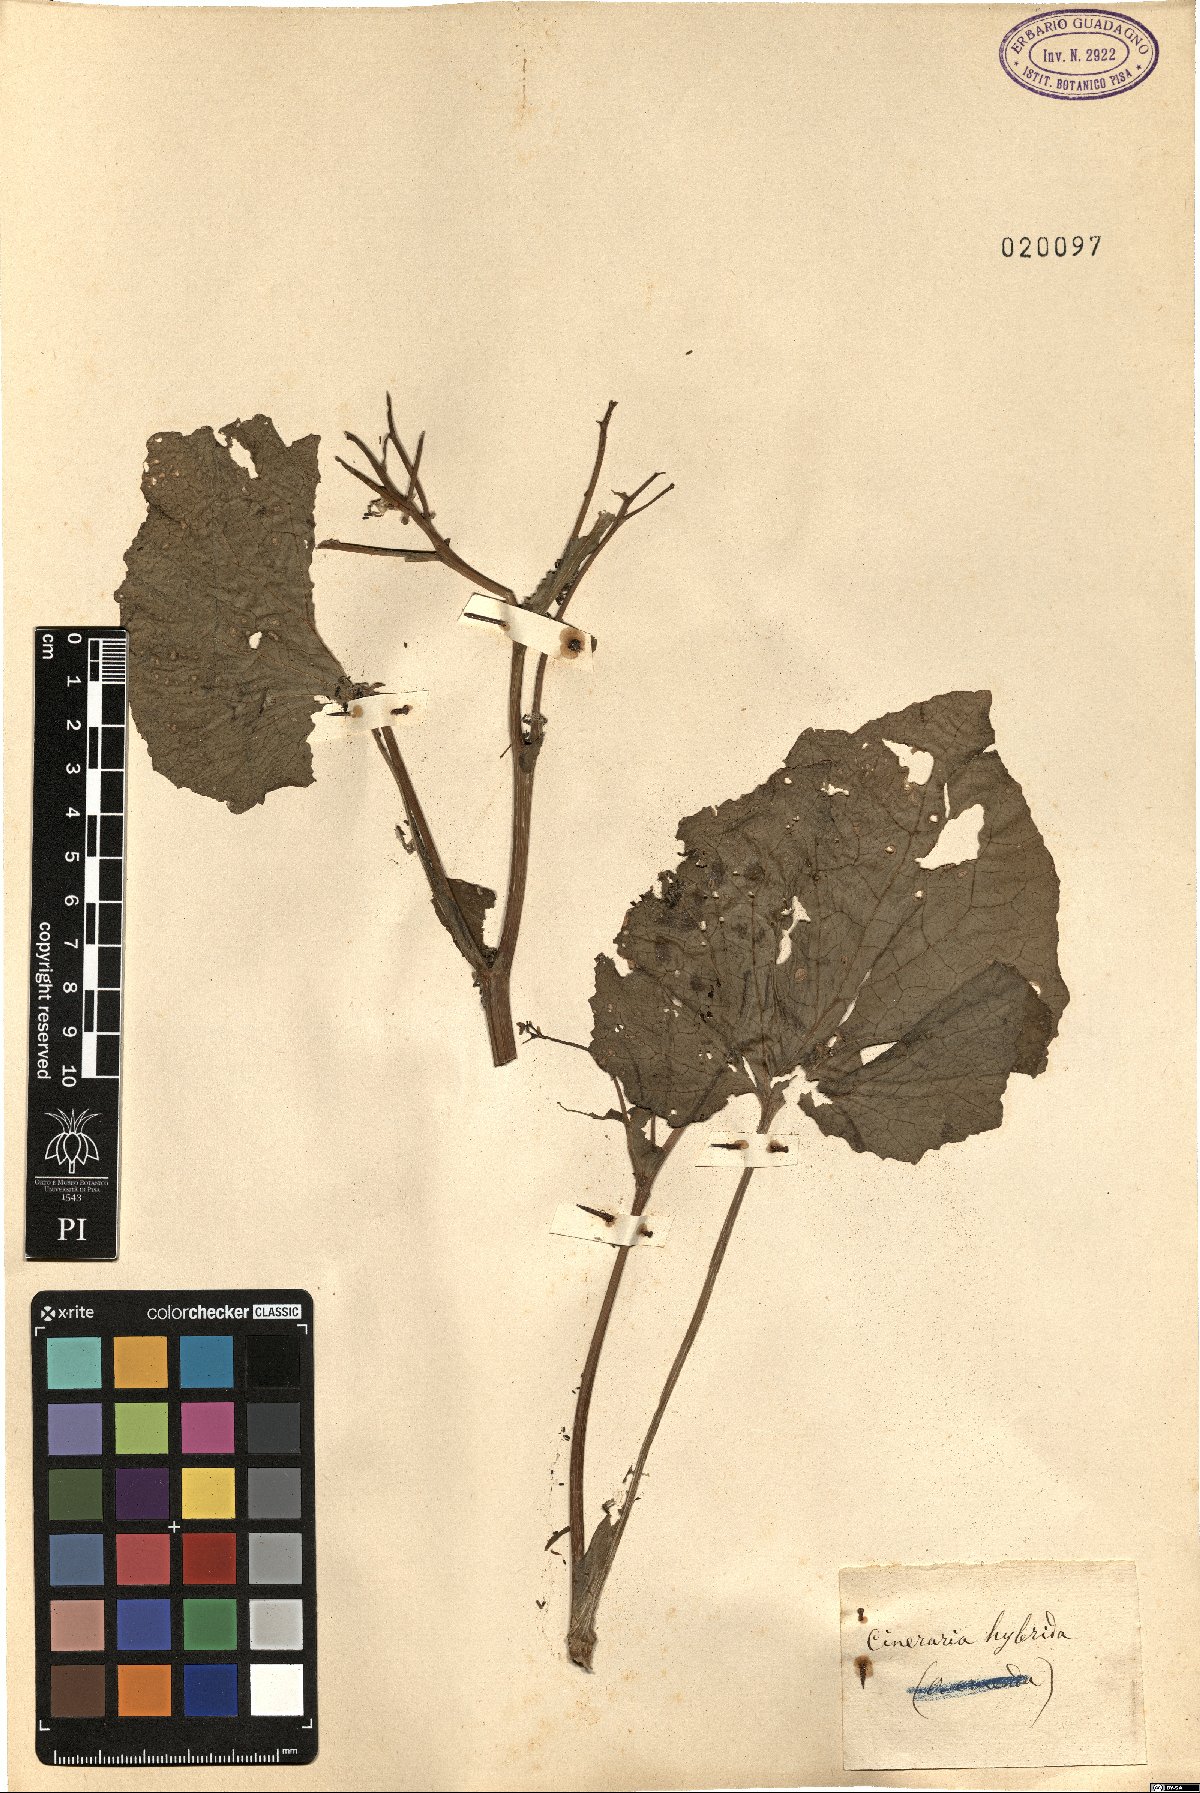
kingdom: Plantae
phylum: Tracheophyta
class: Magnoliopsida
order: Asterales
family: Asteraceae
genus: Pericallis
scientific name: Pericallis hybrida
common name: Cineraria
